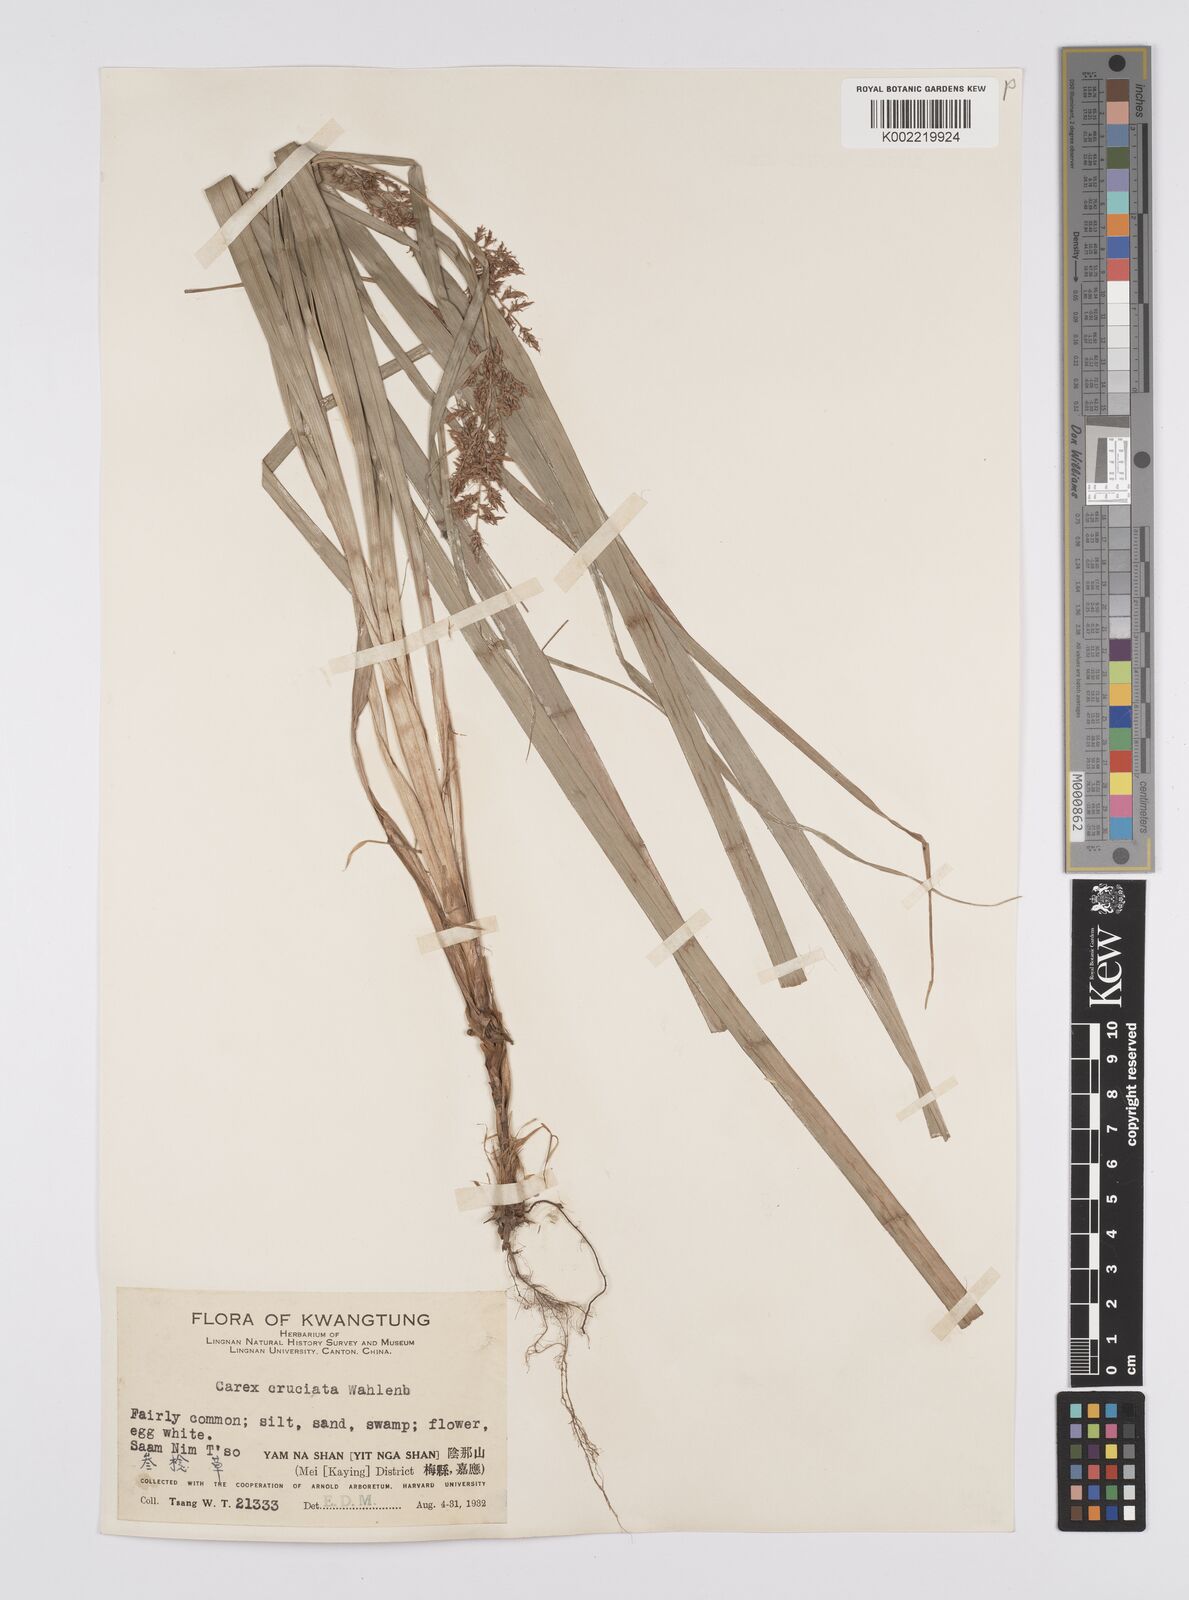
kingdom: Plantae
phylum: Tracheophyta
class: Liliopsida
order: Poales
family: Cyperaceae
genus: Carex
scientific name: Carex cruciata
